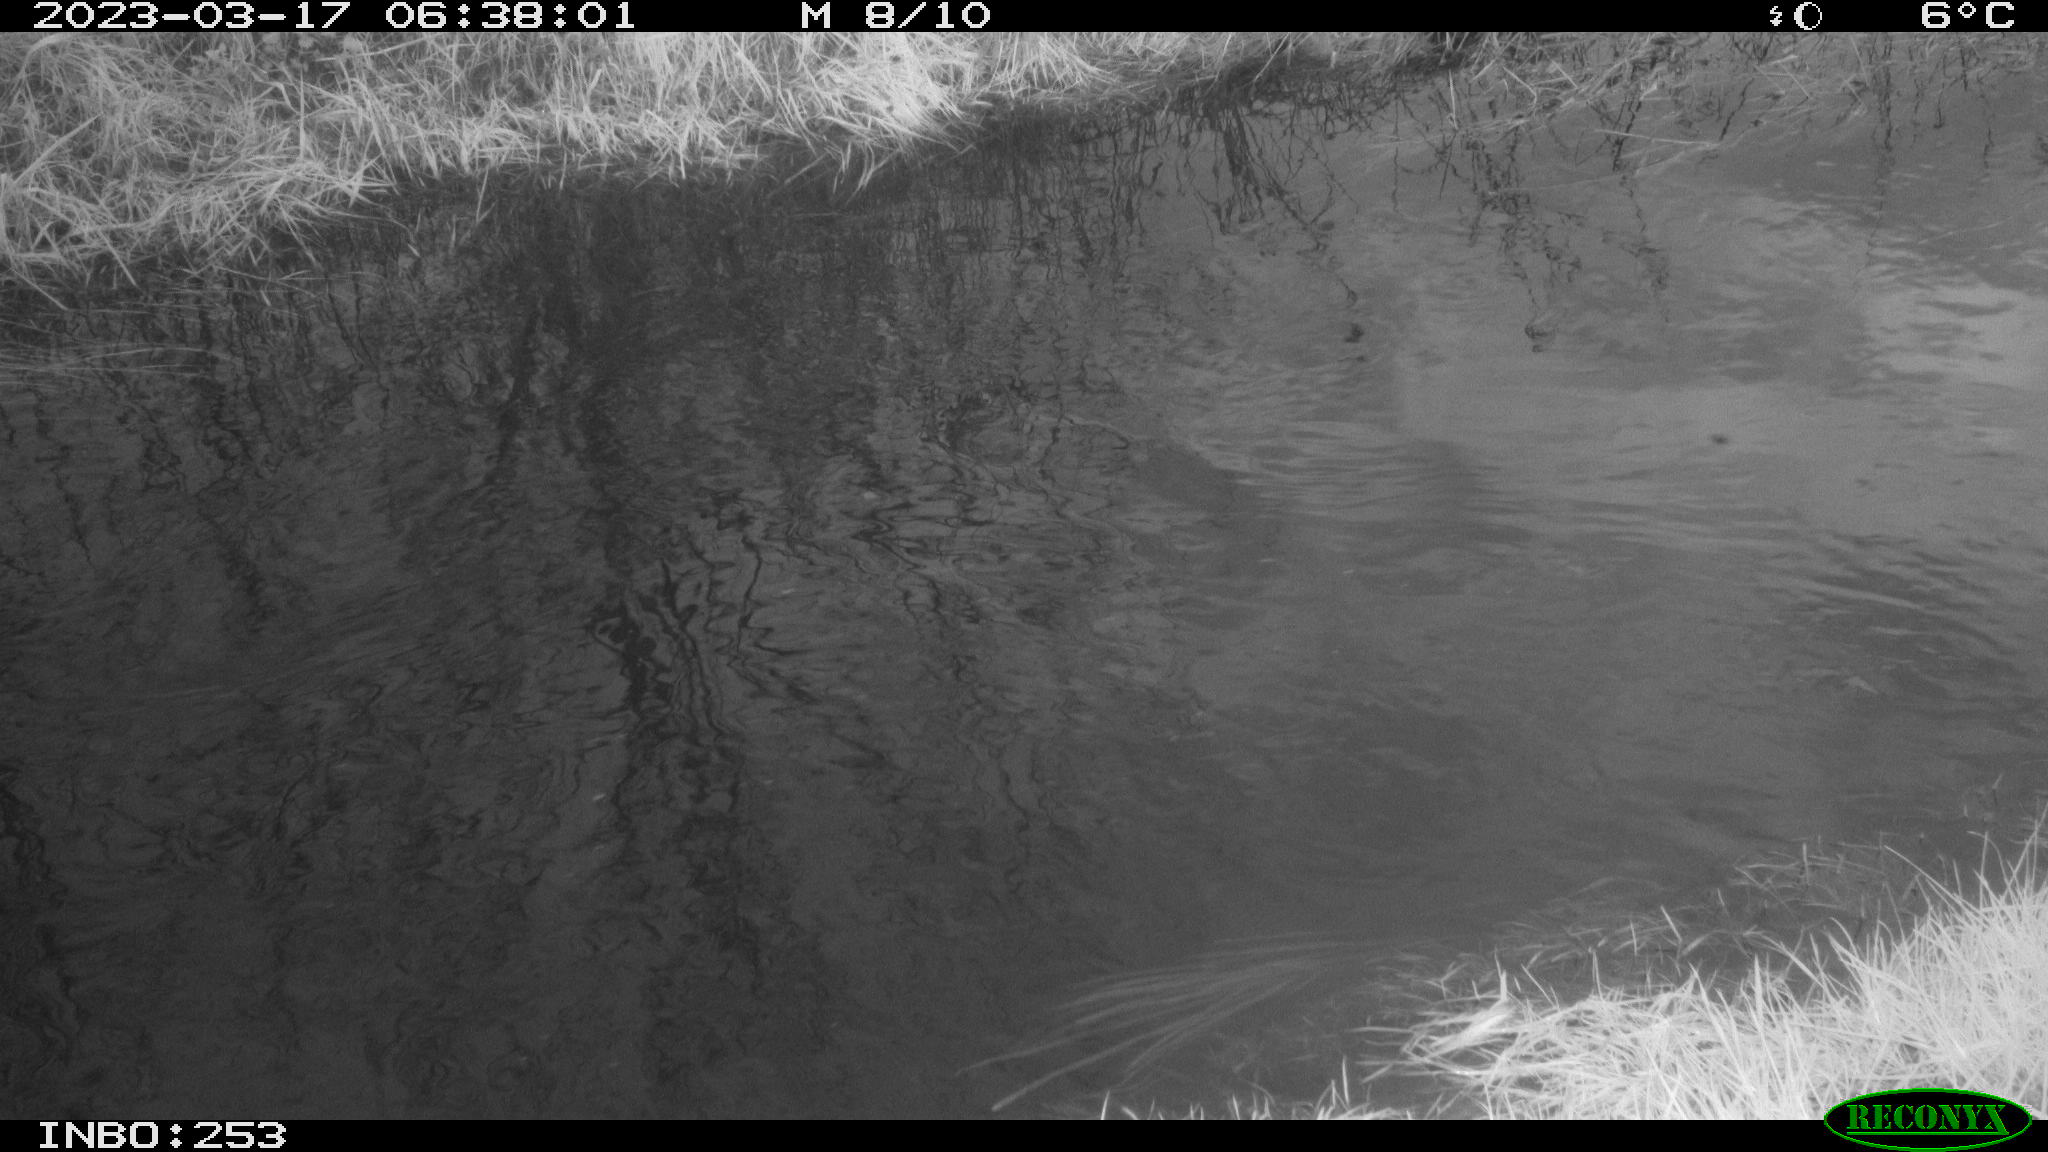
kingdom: Animalia
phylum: Chordata
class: Aves
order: Anseriformes
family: Anatidae
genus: Anas
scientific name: Anas
